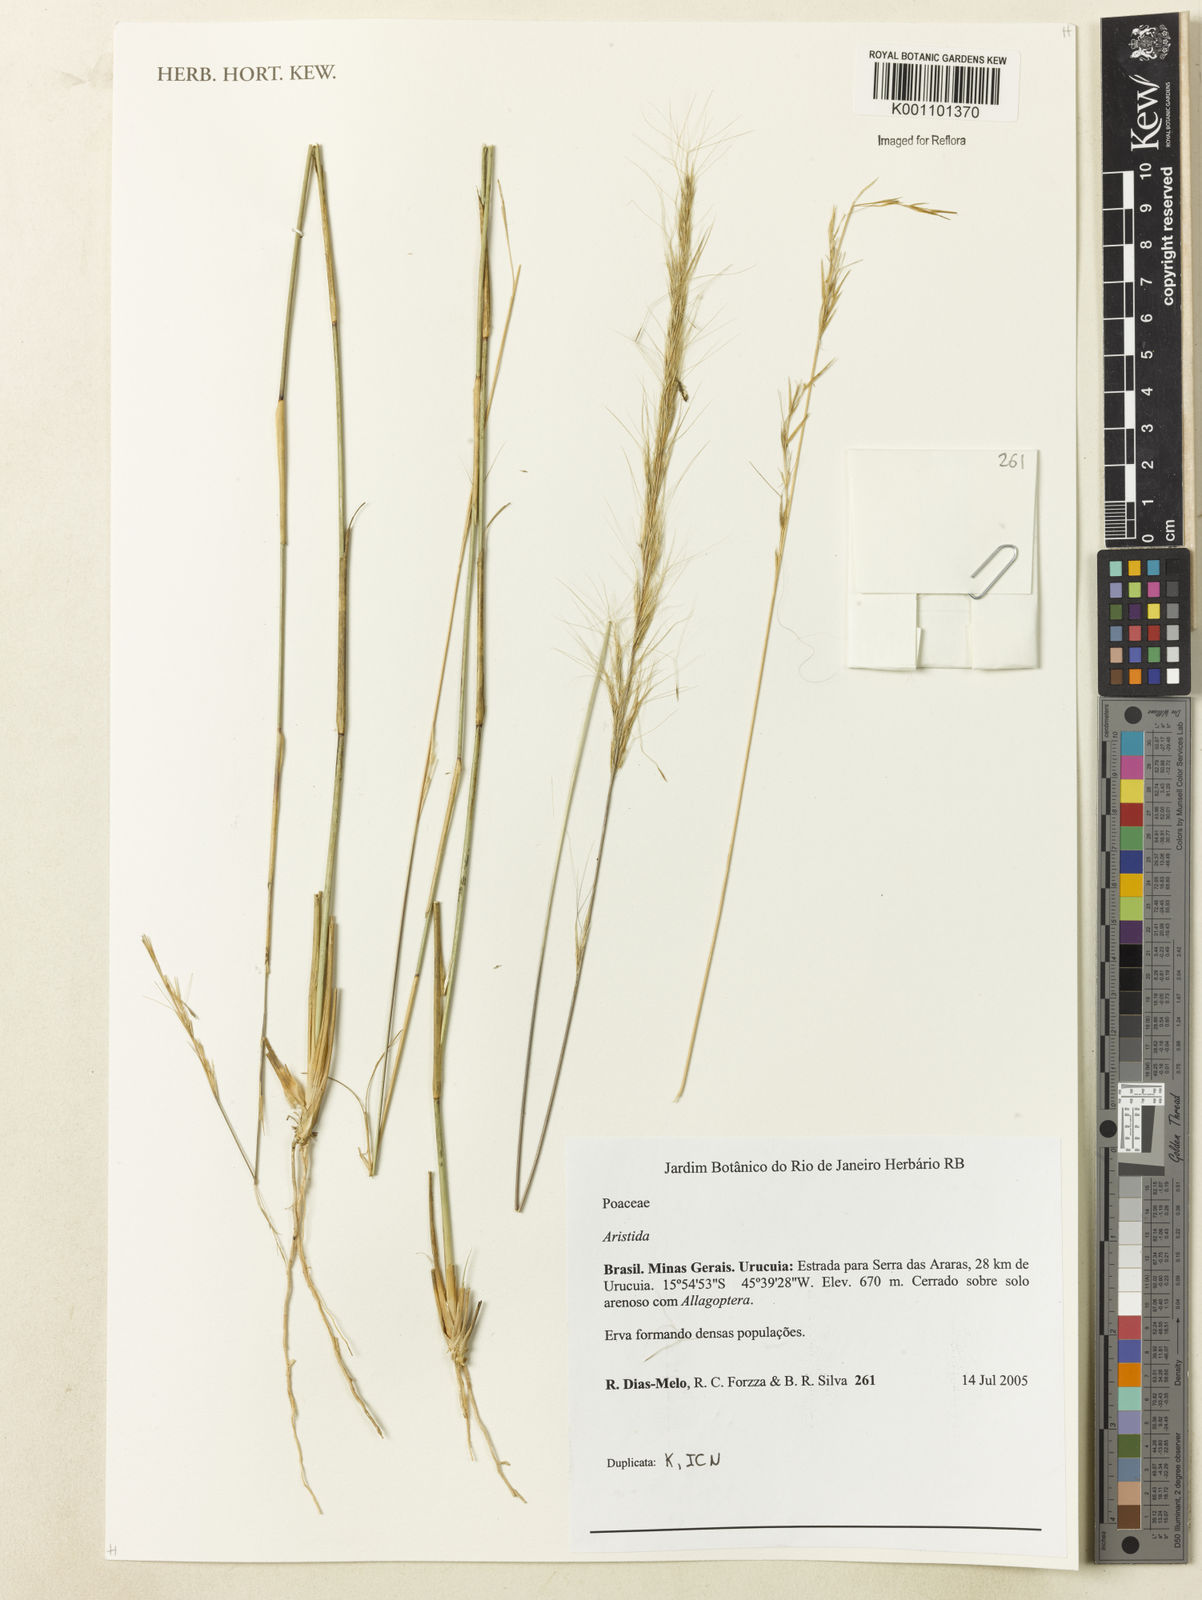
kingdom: Plantae
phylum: Tracheophyta
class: Liliopsida
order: Poales
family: Poaceae
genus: Aristida
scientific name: Aristida
